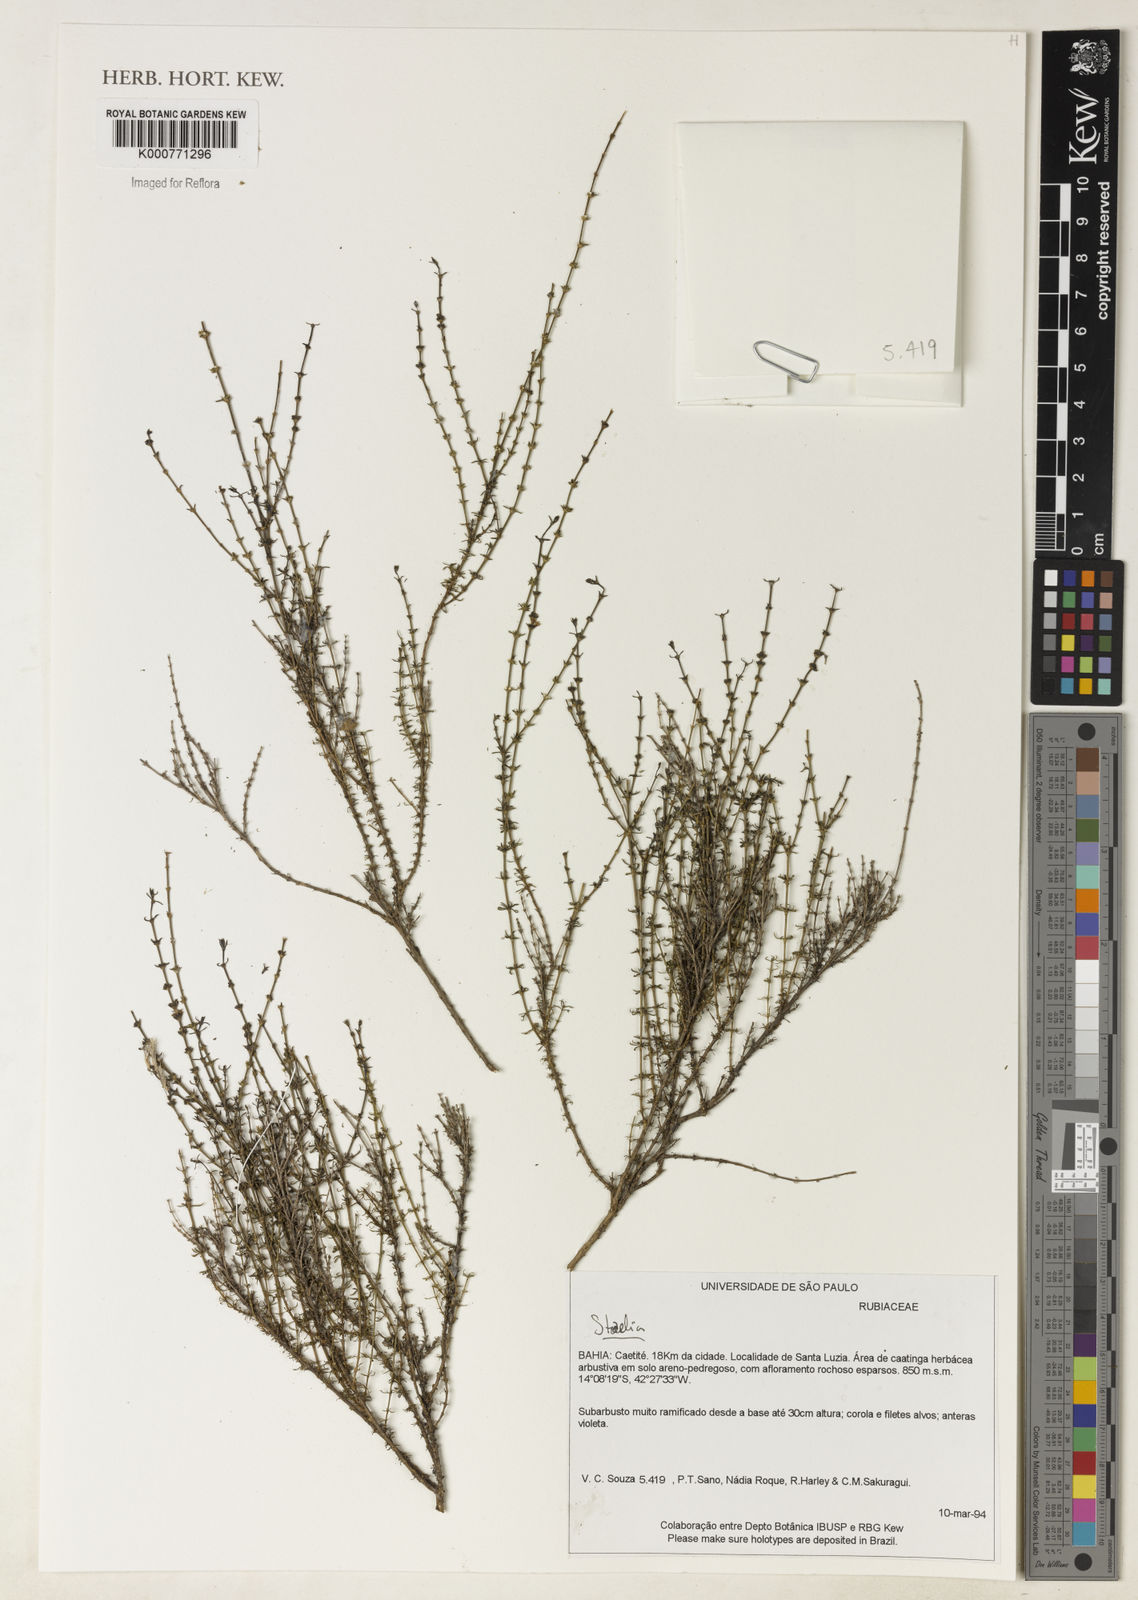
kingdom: Plantae
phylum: Tracheophyta
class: Magnoliopsida
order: Gentianales
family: Rubiaceae
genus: Staelia
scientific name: Staelia
